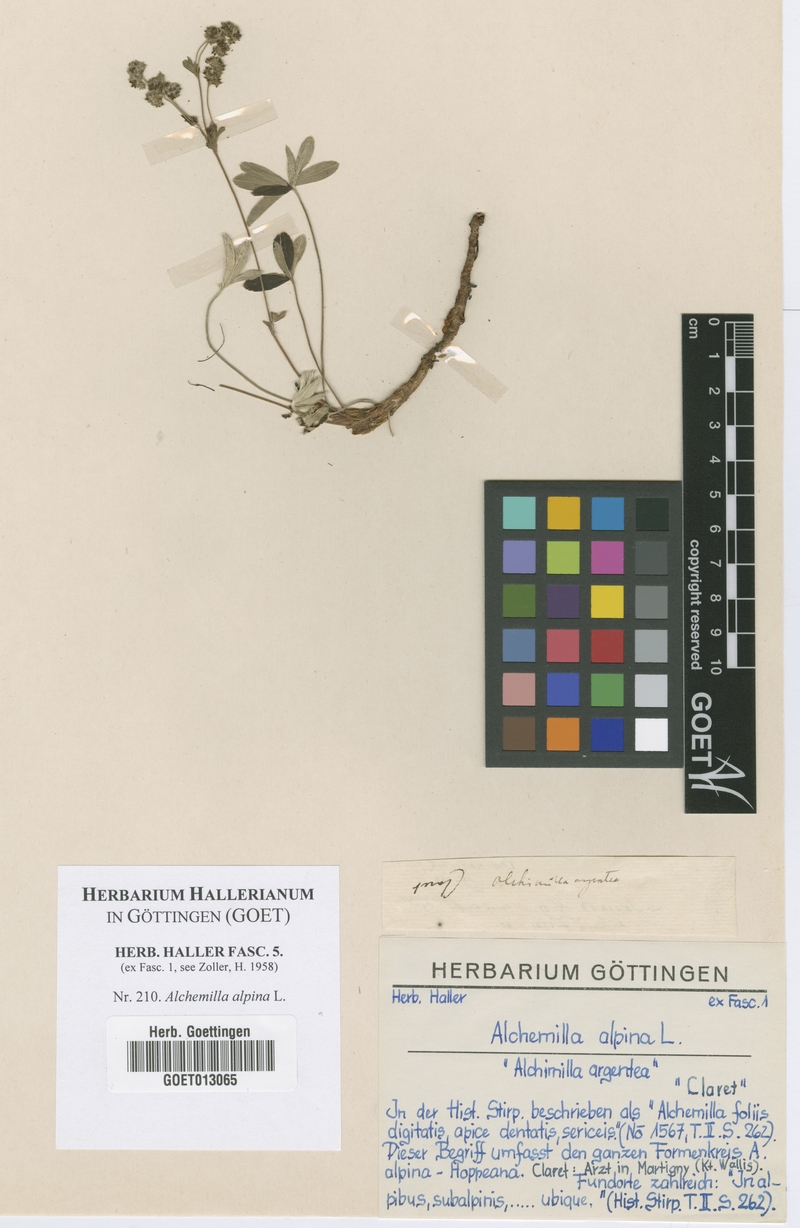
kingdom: Plantae
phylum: Tracheophyta
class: Magnoliopsida
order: Rosales
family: Rosaceae
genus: Alchemilla
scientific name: Alchemilla alpina
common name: Alpine lady's-mantle
